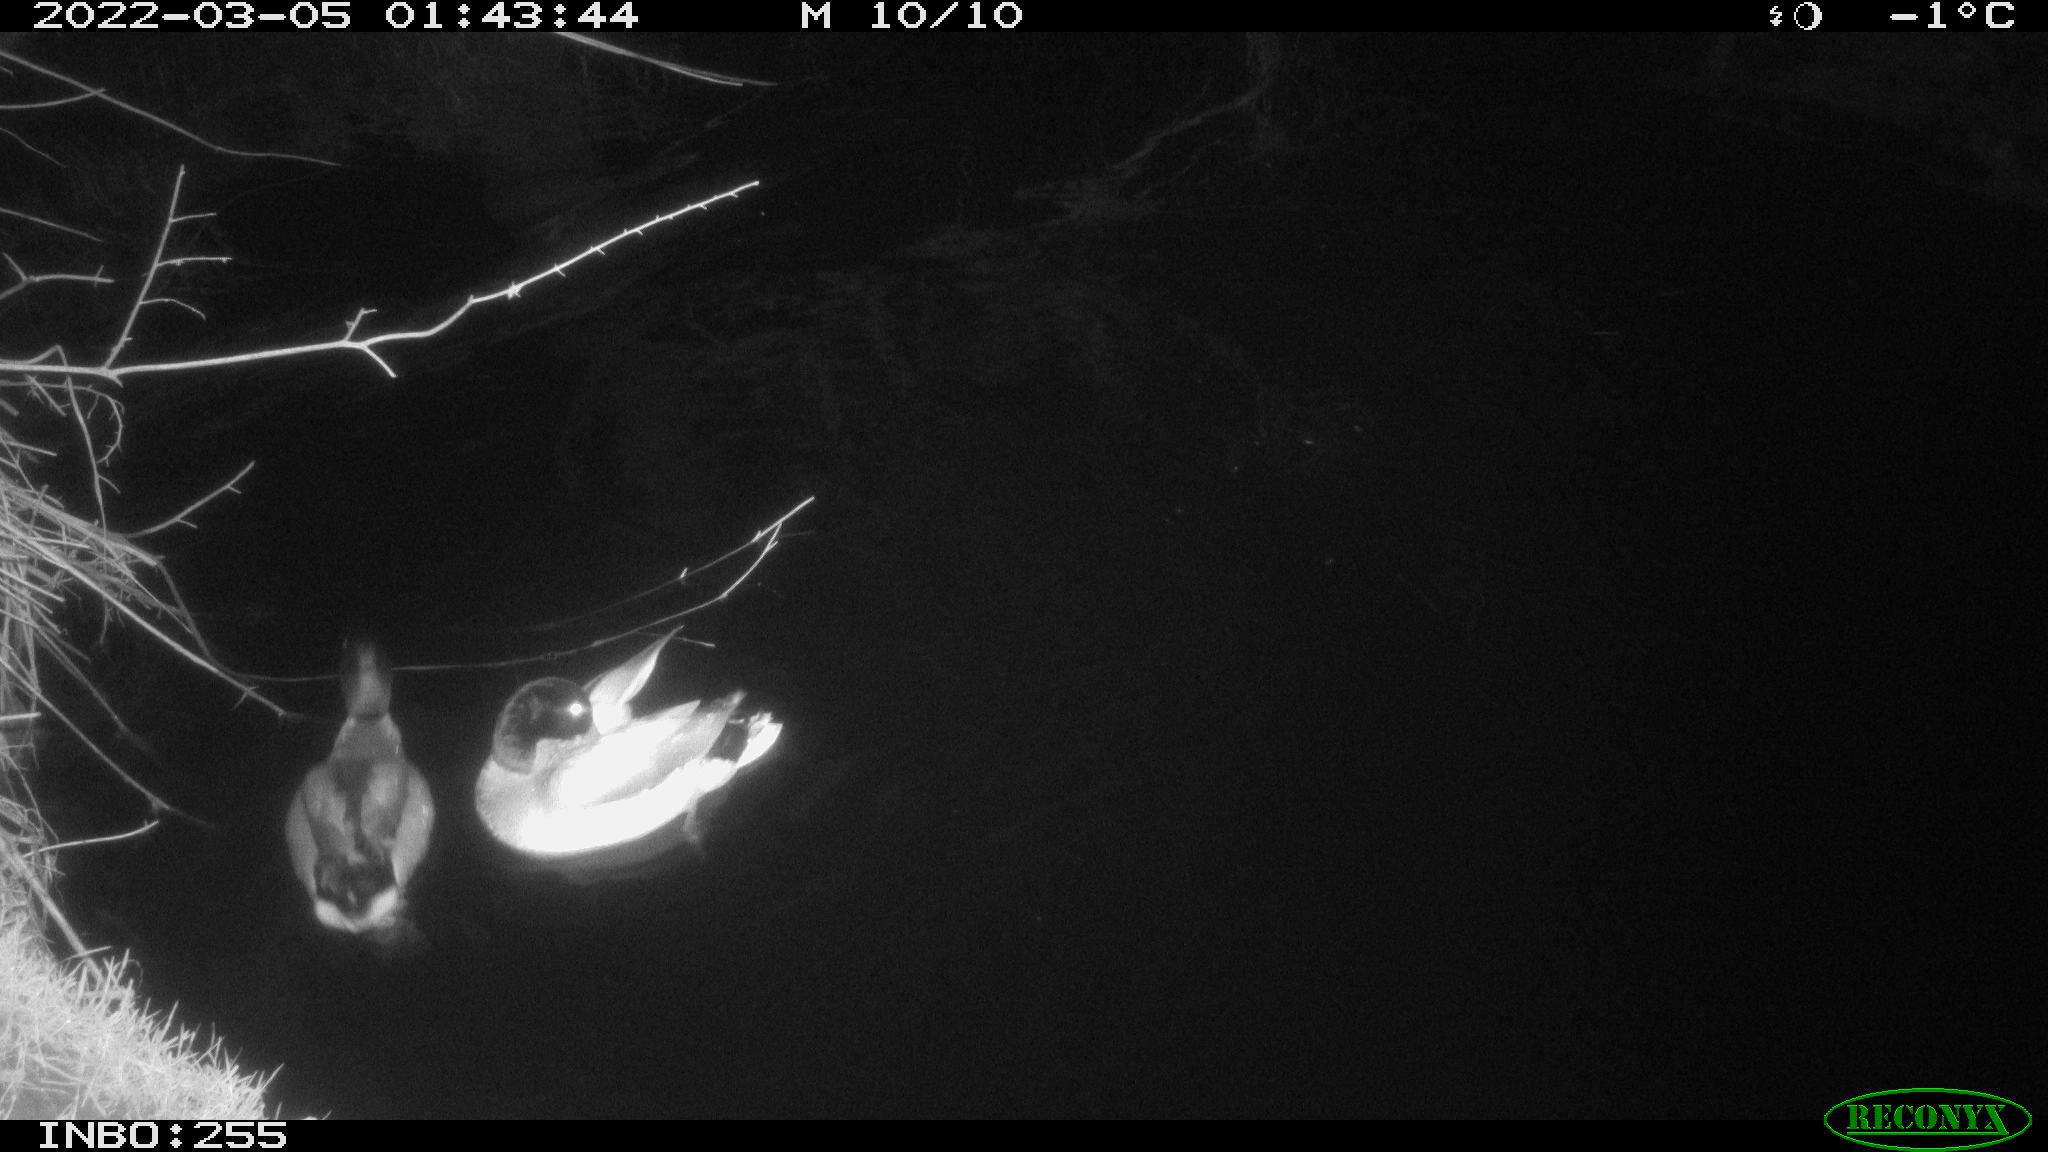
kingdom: Animalia
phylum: Chordata
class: Aves
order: Anseriformes
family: Anatidae
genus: Anas
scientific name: Anas platyrhynchos
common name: Mallard
